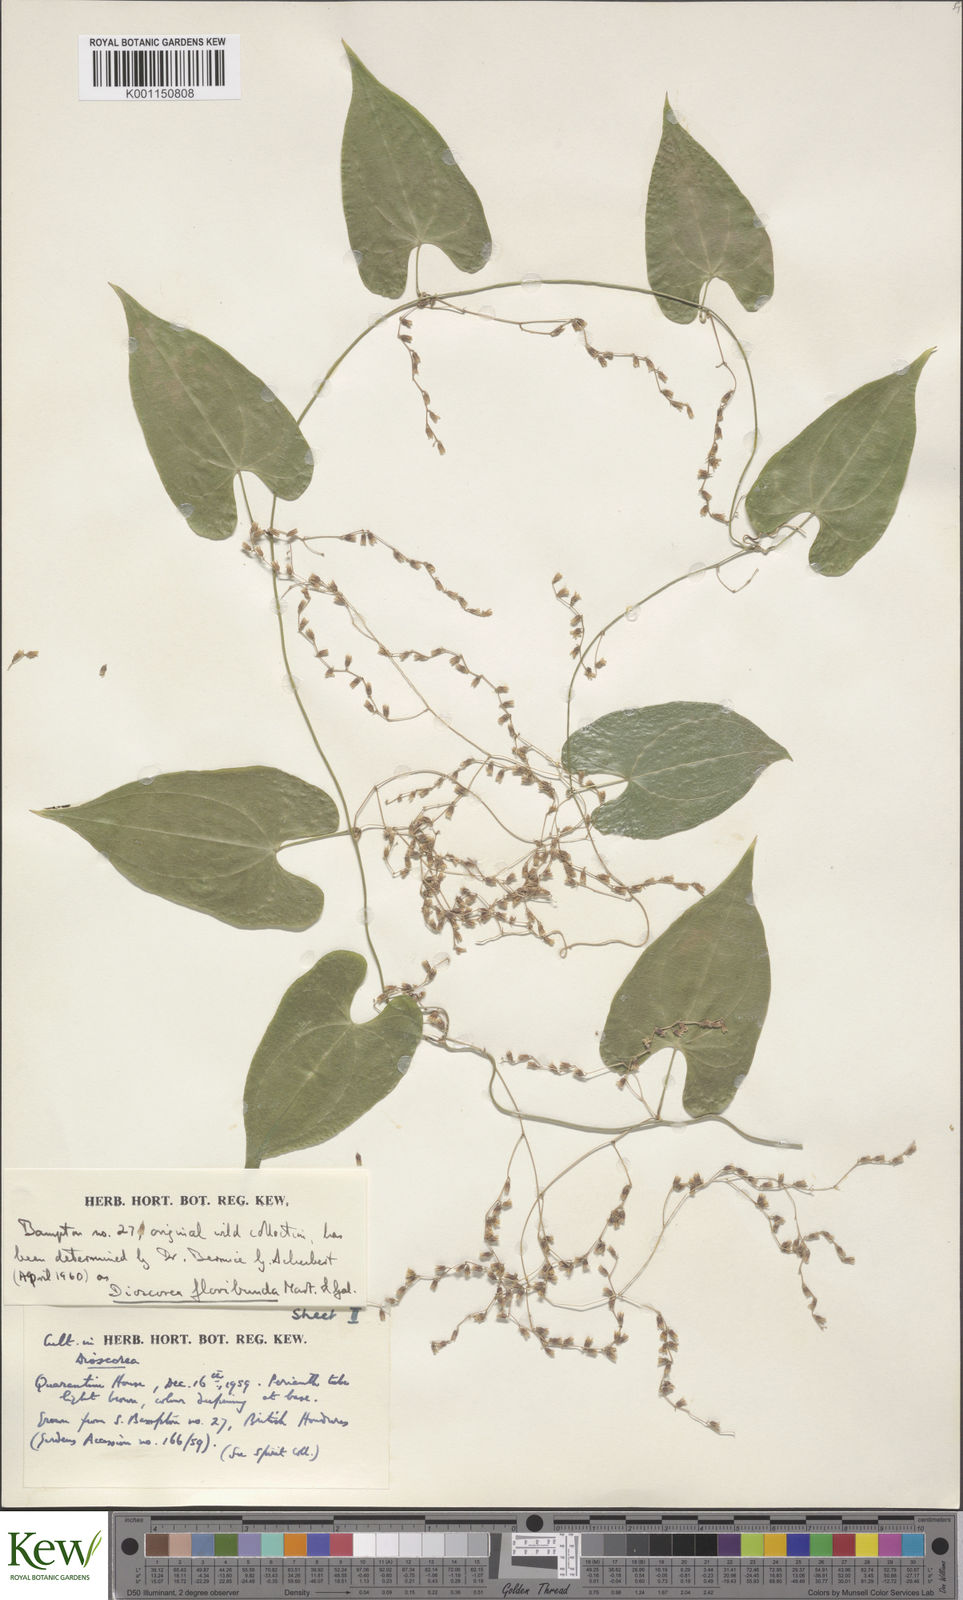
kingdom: Plantae
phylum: Tracheophyta
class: Liliopsida
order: Dioscoreales
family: Dioscoreaceae
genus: Dioscorea
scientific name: Dioscorea floribunda
